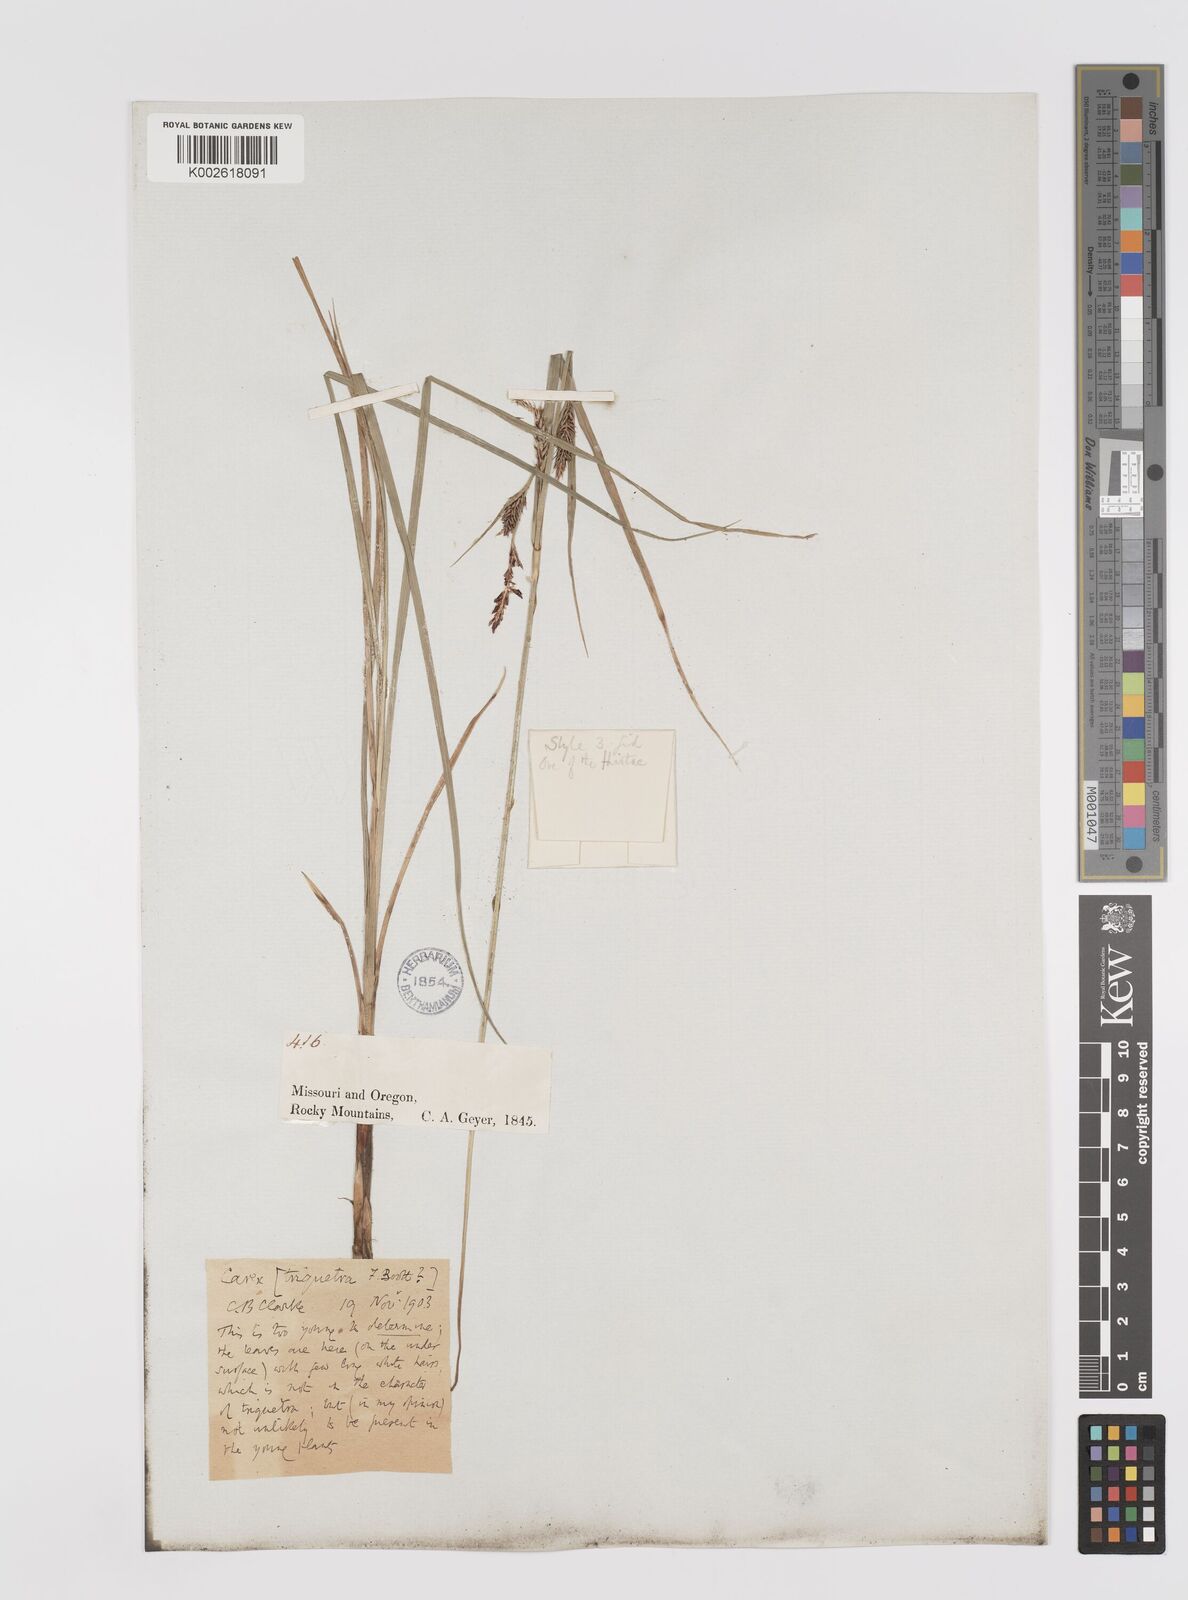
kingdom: Plantae
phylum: Tracheophyta
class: Liliopsida
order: Poales
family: Cyperaceae
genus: Carex
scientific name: Carex triquetra
